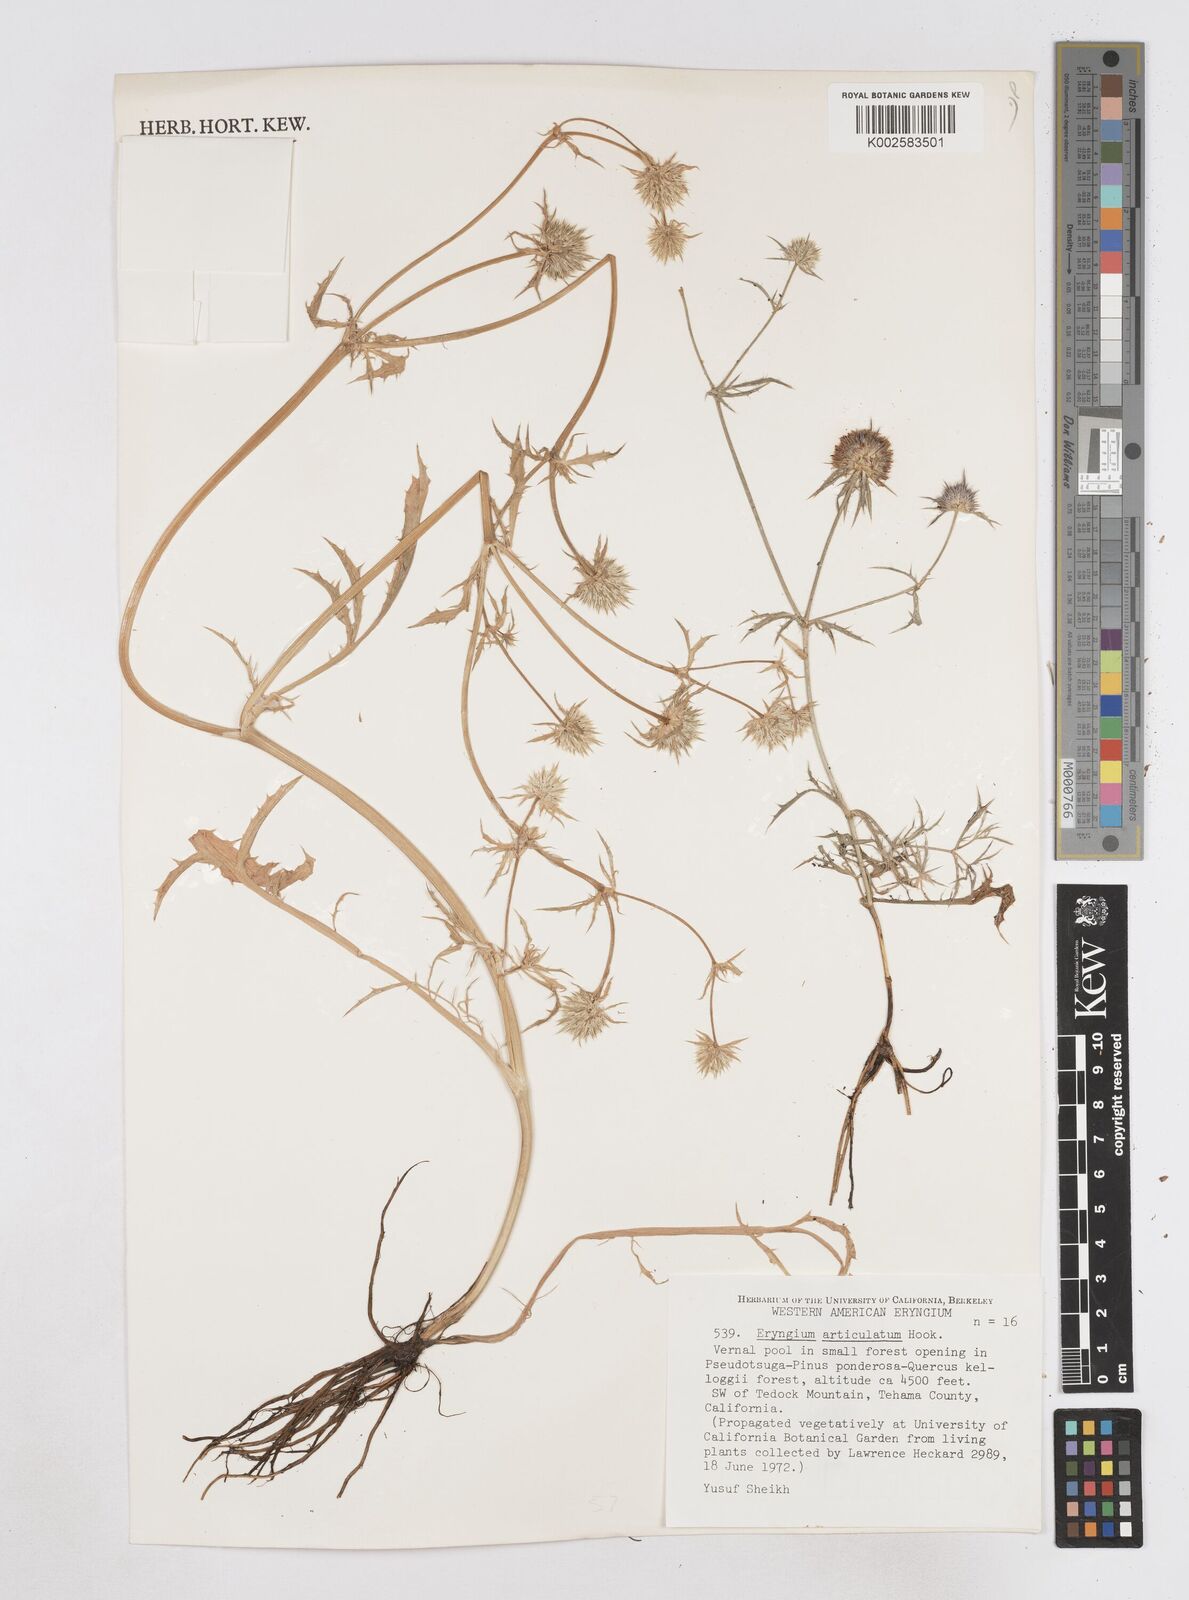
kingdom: Plantae
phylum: Tracheophyta
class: Magnoliopsida
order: Apiales
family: Apiaceae
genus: Eryngium
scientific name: Eryngium articulatum
